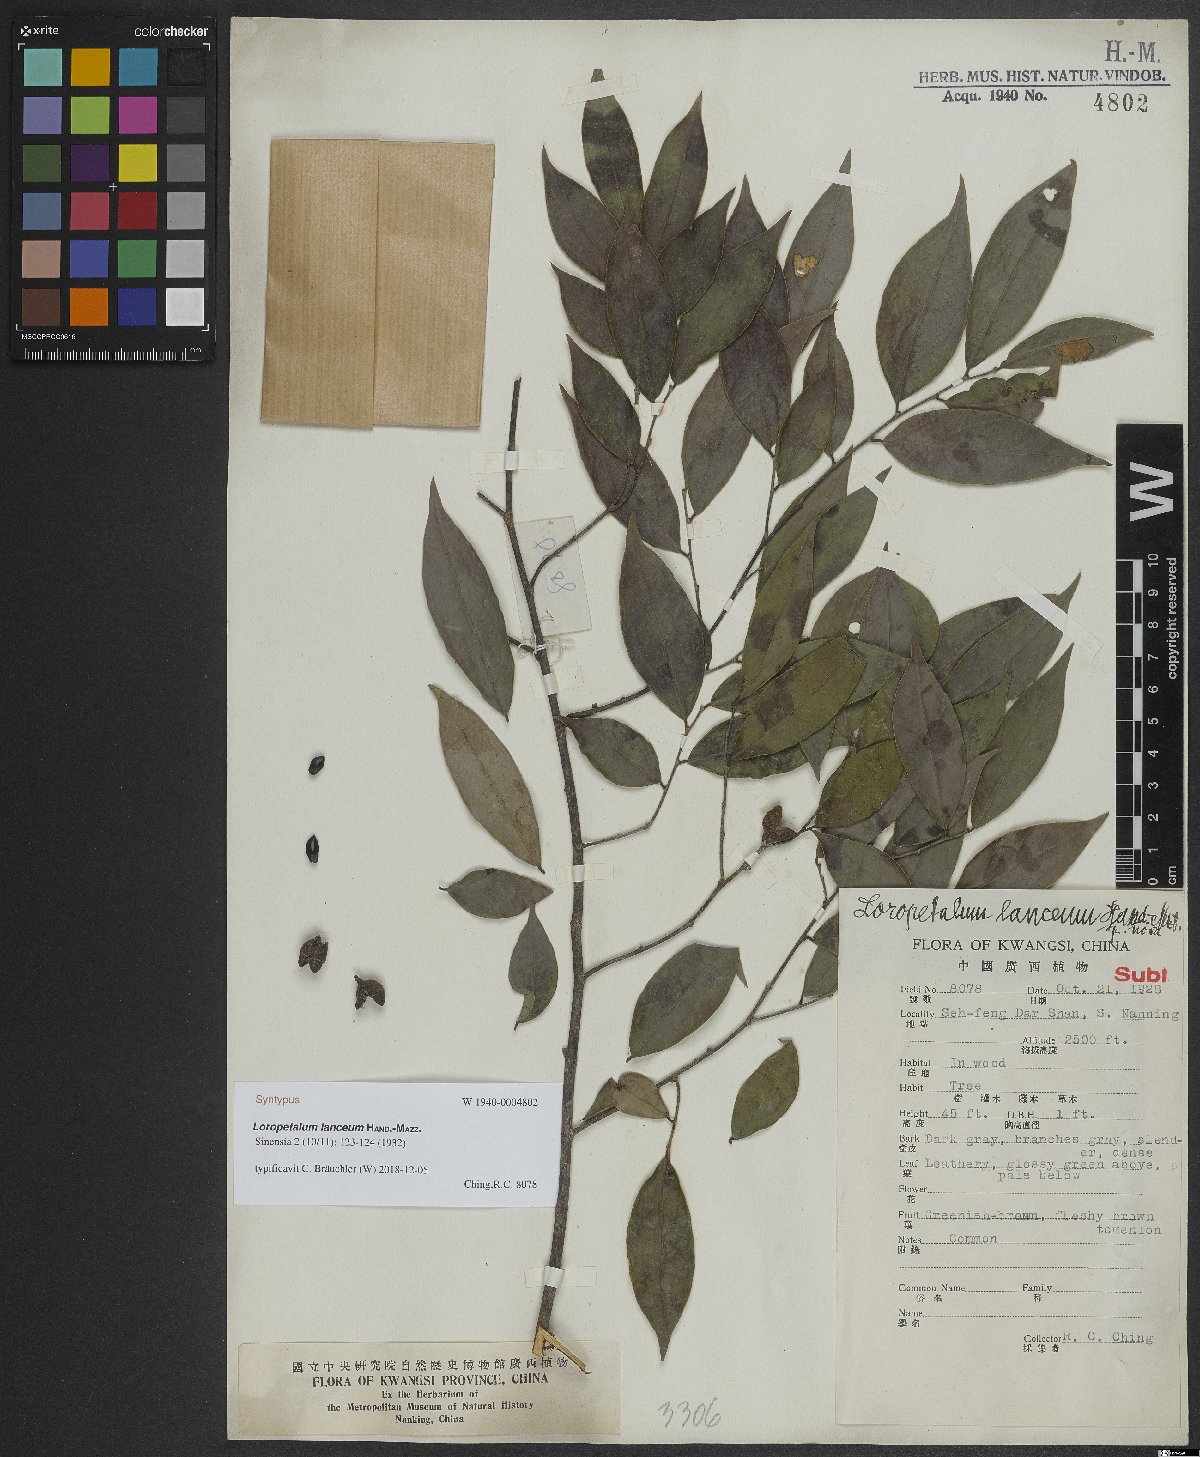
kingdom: Plantae
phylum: Tracheophyta
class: Magnoliopsida
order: Saxifragales
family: Hamamelidaceae
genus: Loropetalum
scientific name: Loropetalum lanceum
